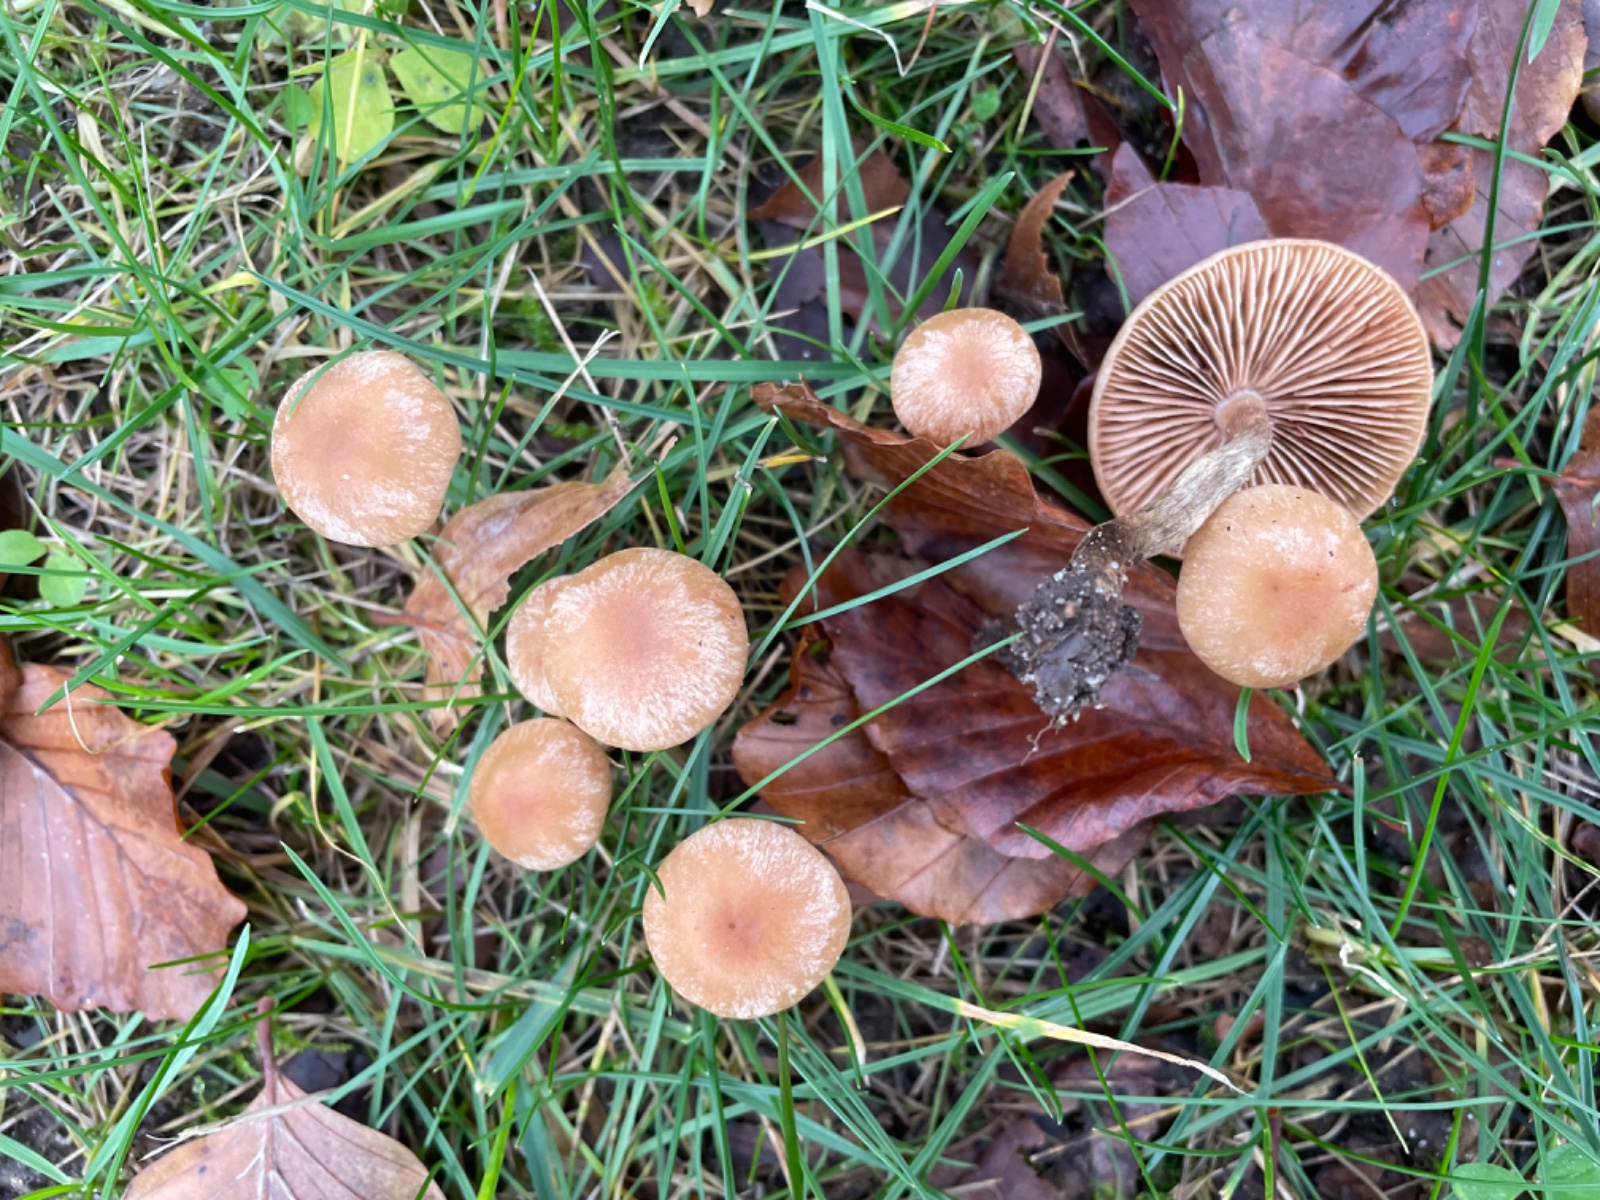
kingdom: Fungi
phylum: Basidiomycota
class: Agaricomycetes
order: Agaricales
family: Tubariaceae
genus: Tubaria
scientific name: Tubaria furfuracea
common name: kliddet fnughat
